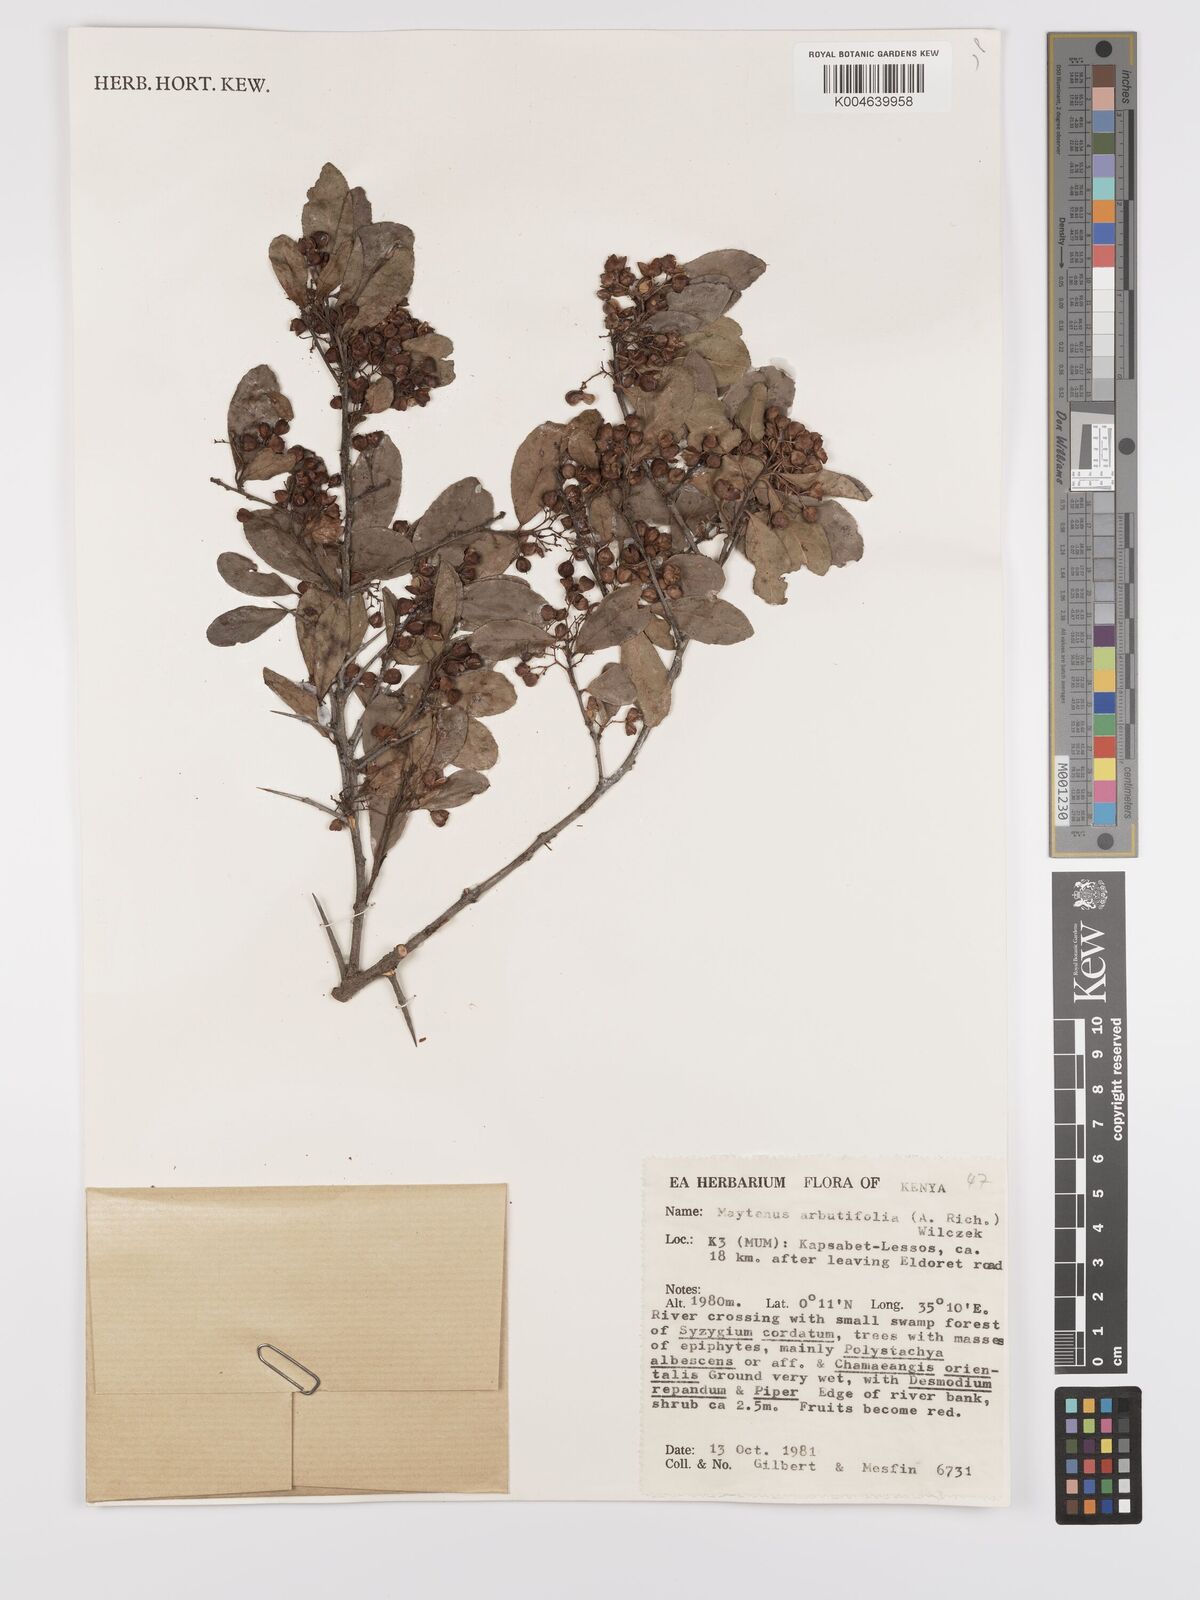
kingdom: Plantae
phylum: Tracheophyta
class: Magnoliopsida
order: Celastrales
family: Celastraceae
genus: Gymnosporia
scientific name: Gymnosporia arbutifolia
